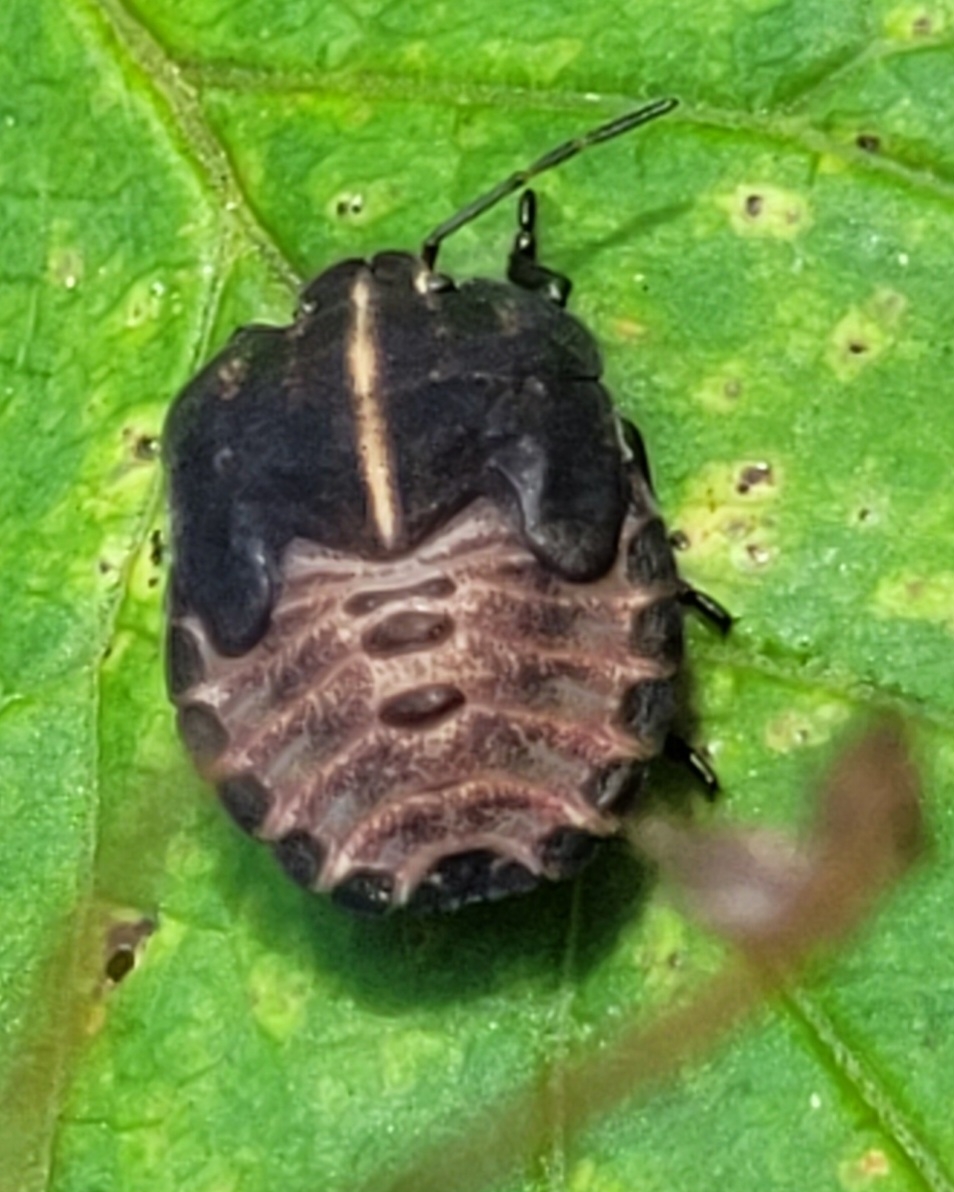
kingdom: Animalia
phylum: Arthropoda
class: Insecta
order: Hemiptera
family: Pentatomidae
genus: Graphosoma
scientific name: Graphosoma italicum
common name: Stribetæge
